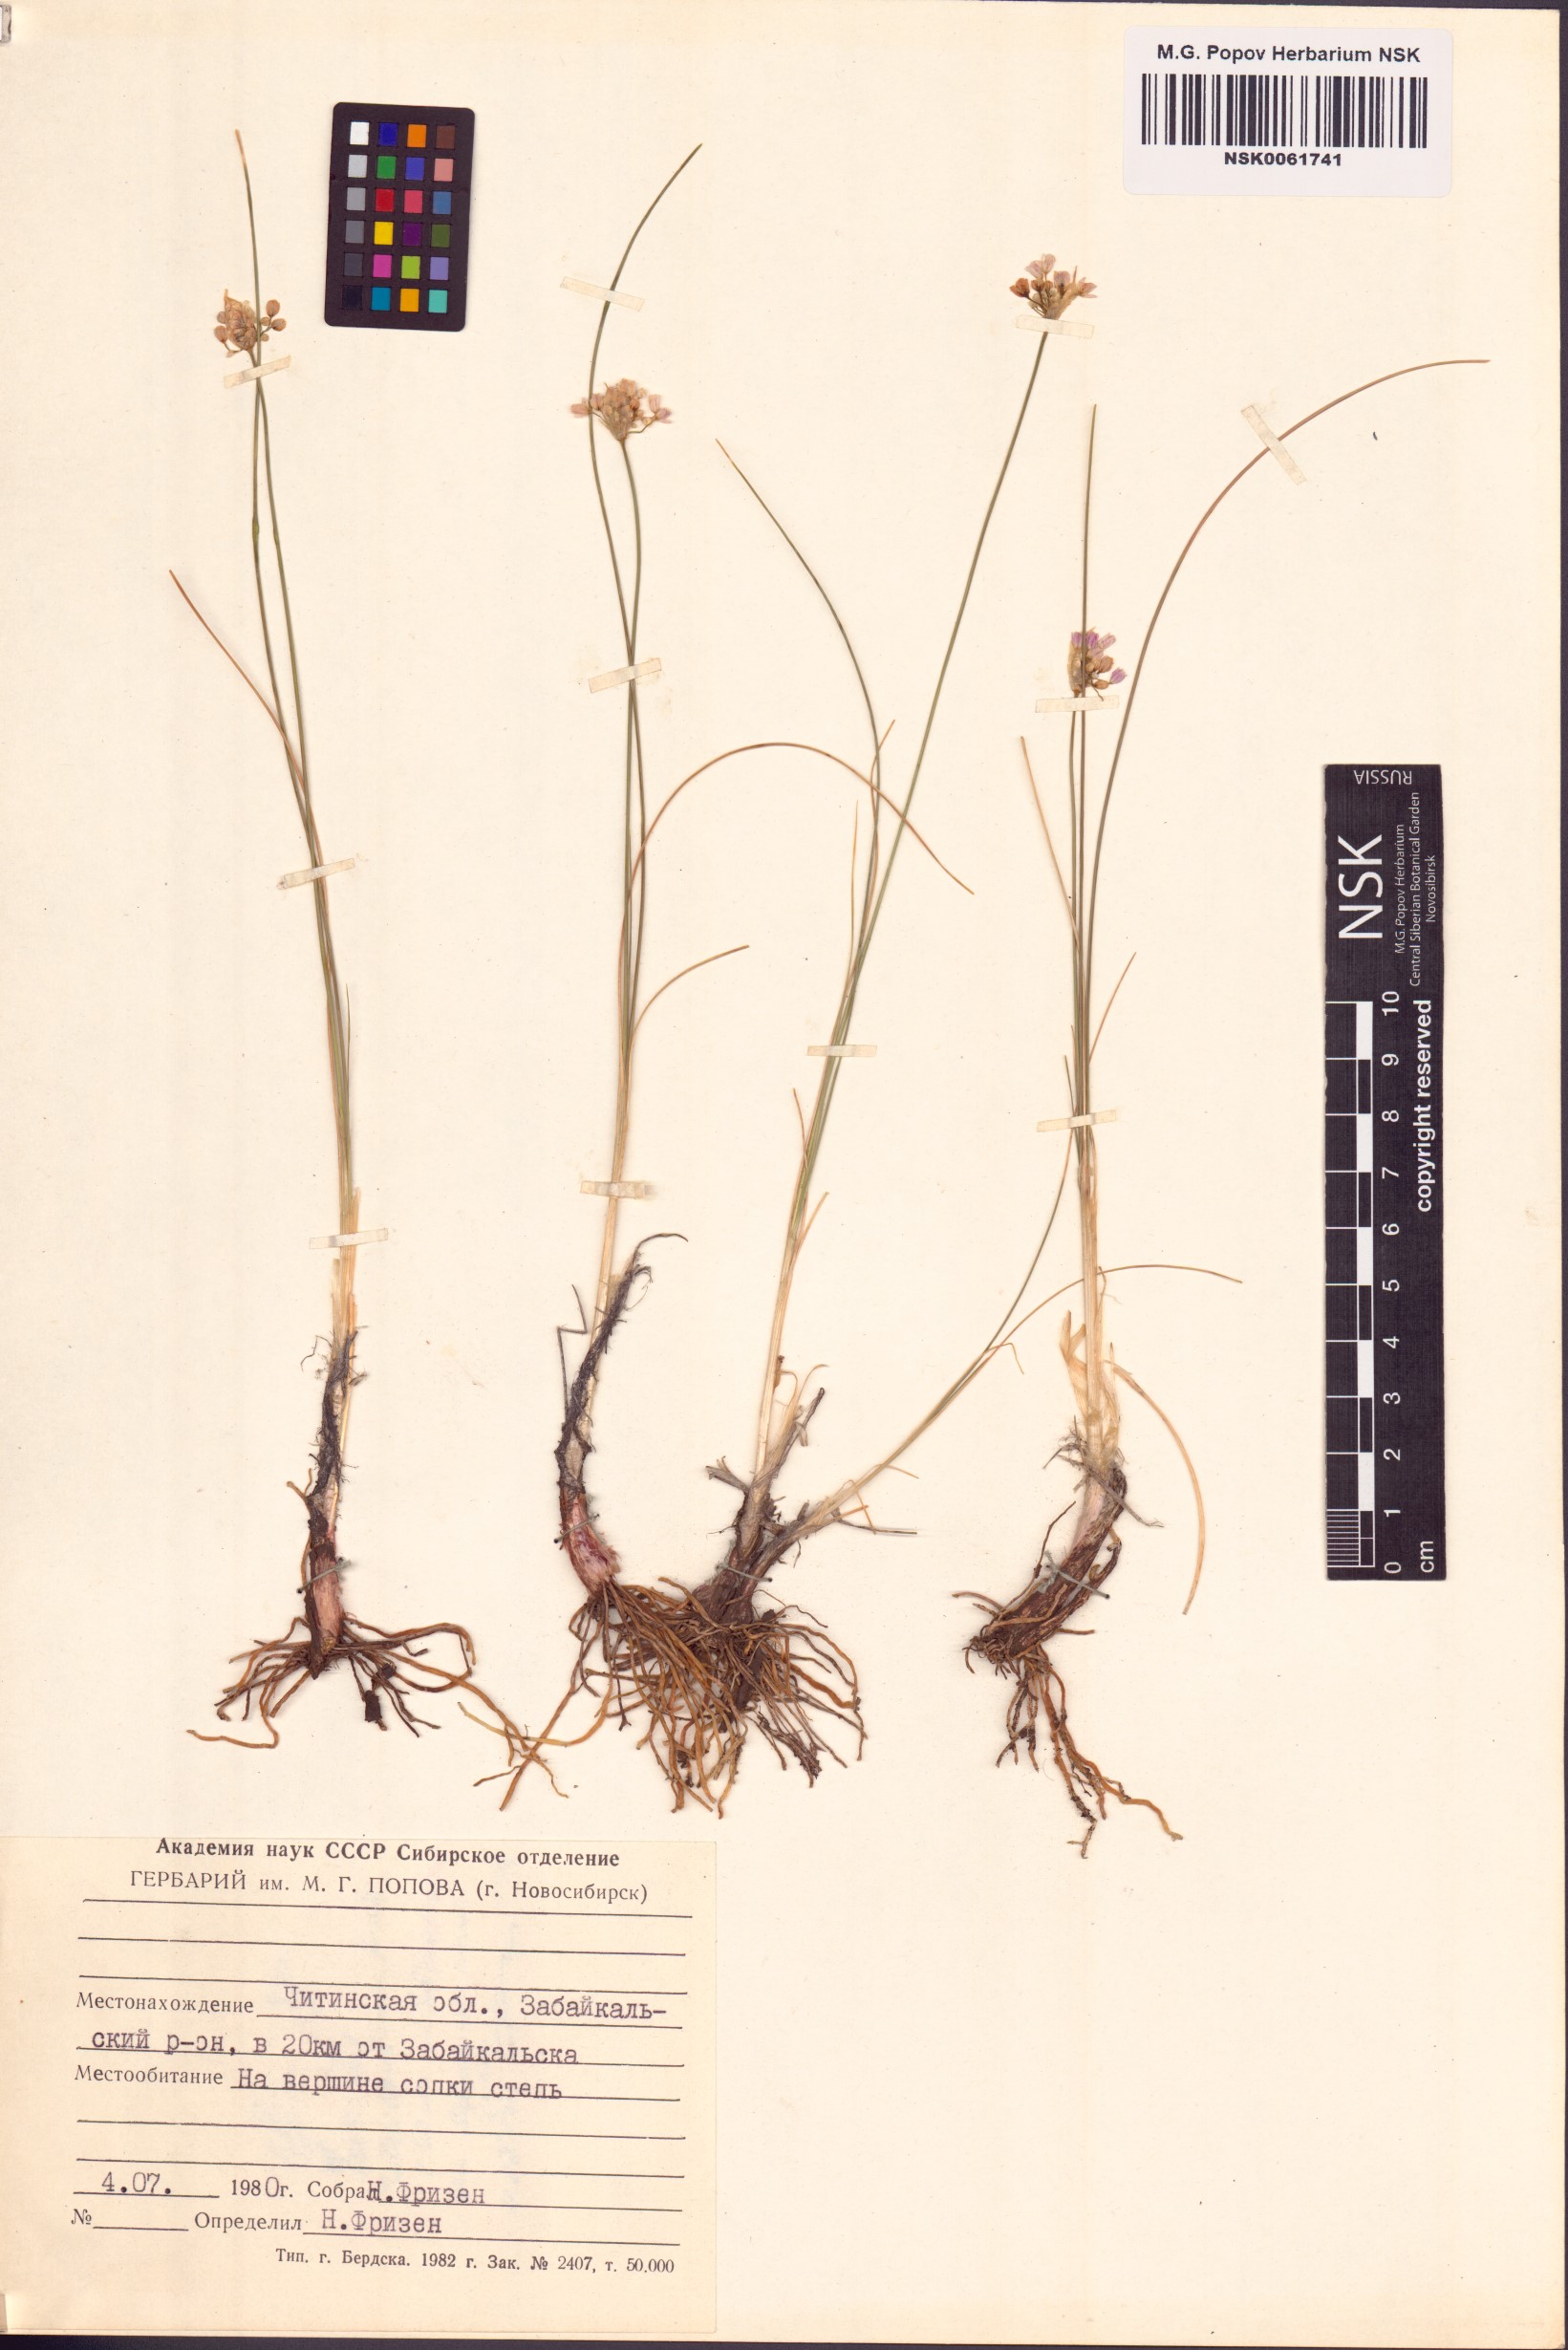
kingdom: Plantae
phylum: Tracheophyta
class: Liliopsida
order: Asparagales
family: Amaryllidaceae
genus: Allium
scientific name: Allium tenuissimum
